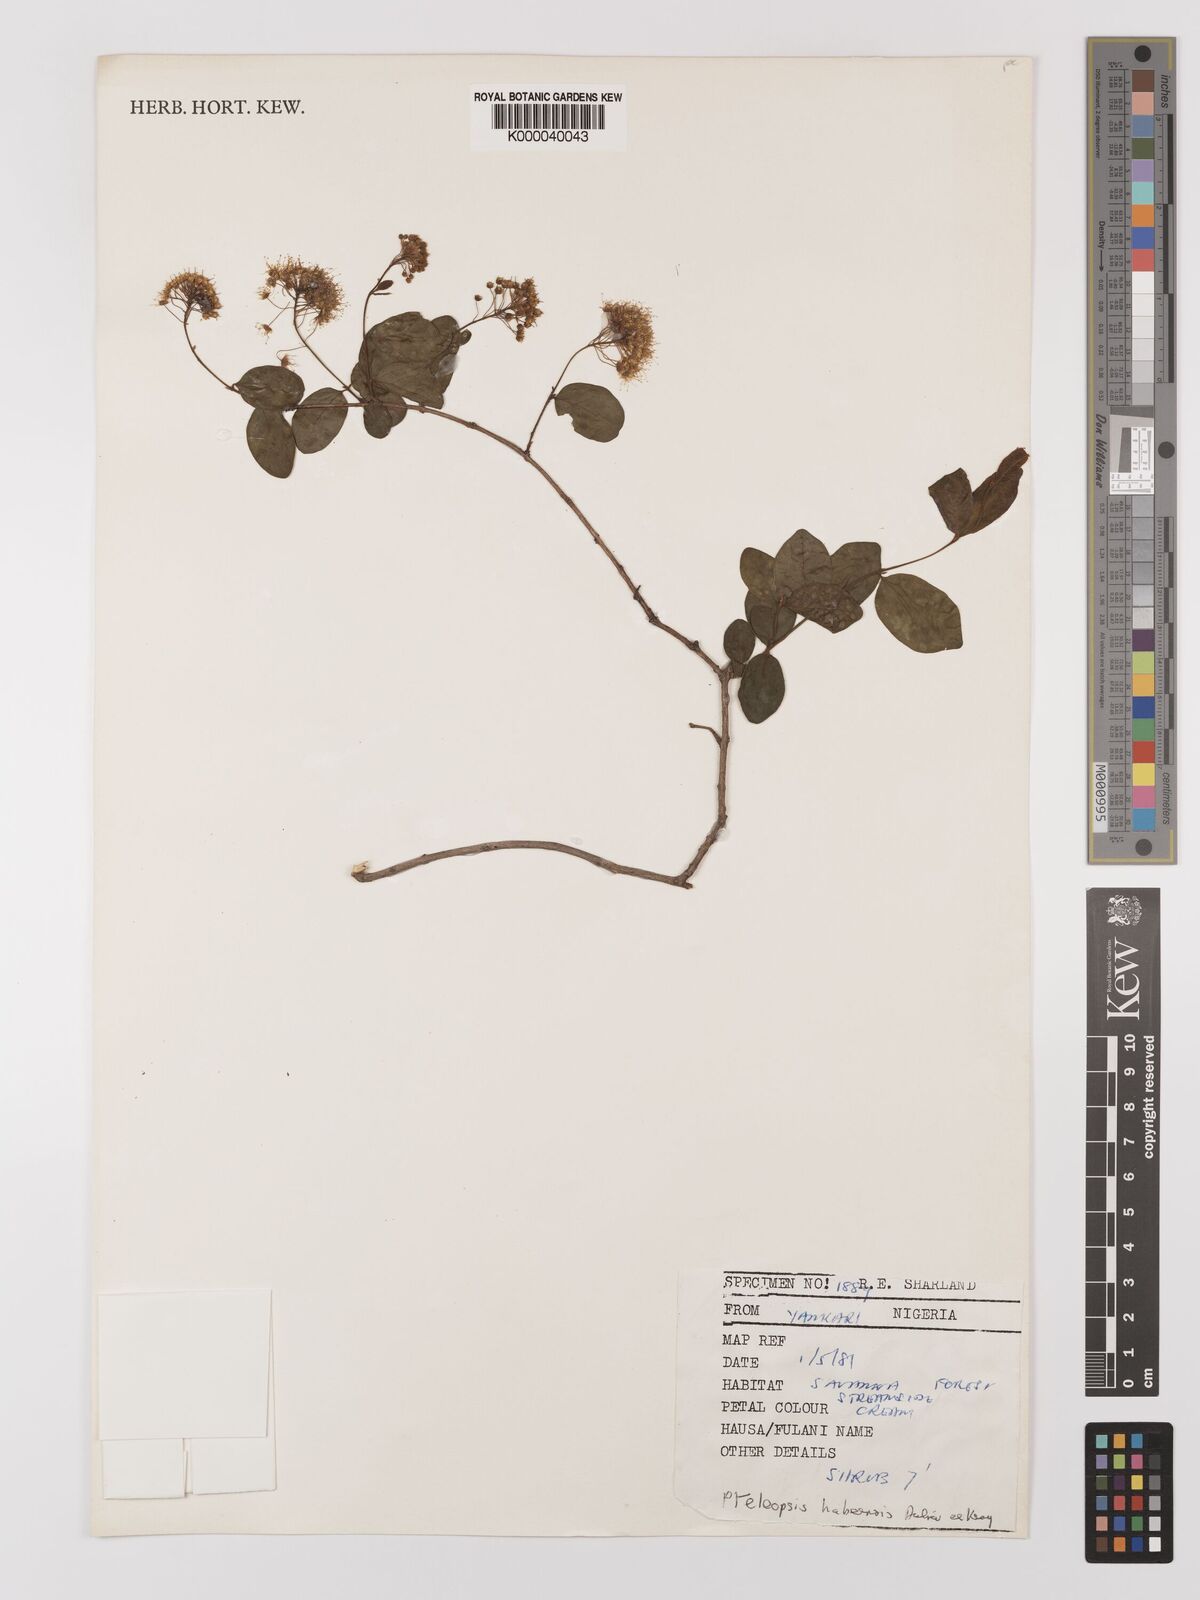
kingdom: Plantae
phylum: Tracheophyta
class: Magnoliopsida
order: Myrtales
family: Combretaceae
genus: Terminalia
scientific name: Terminalia
